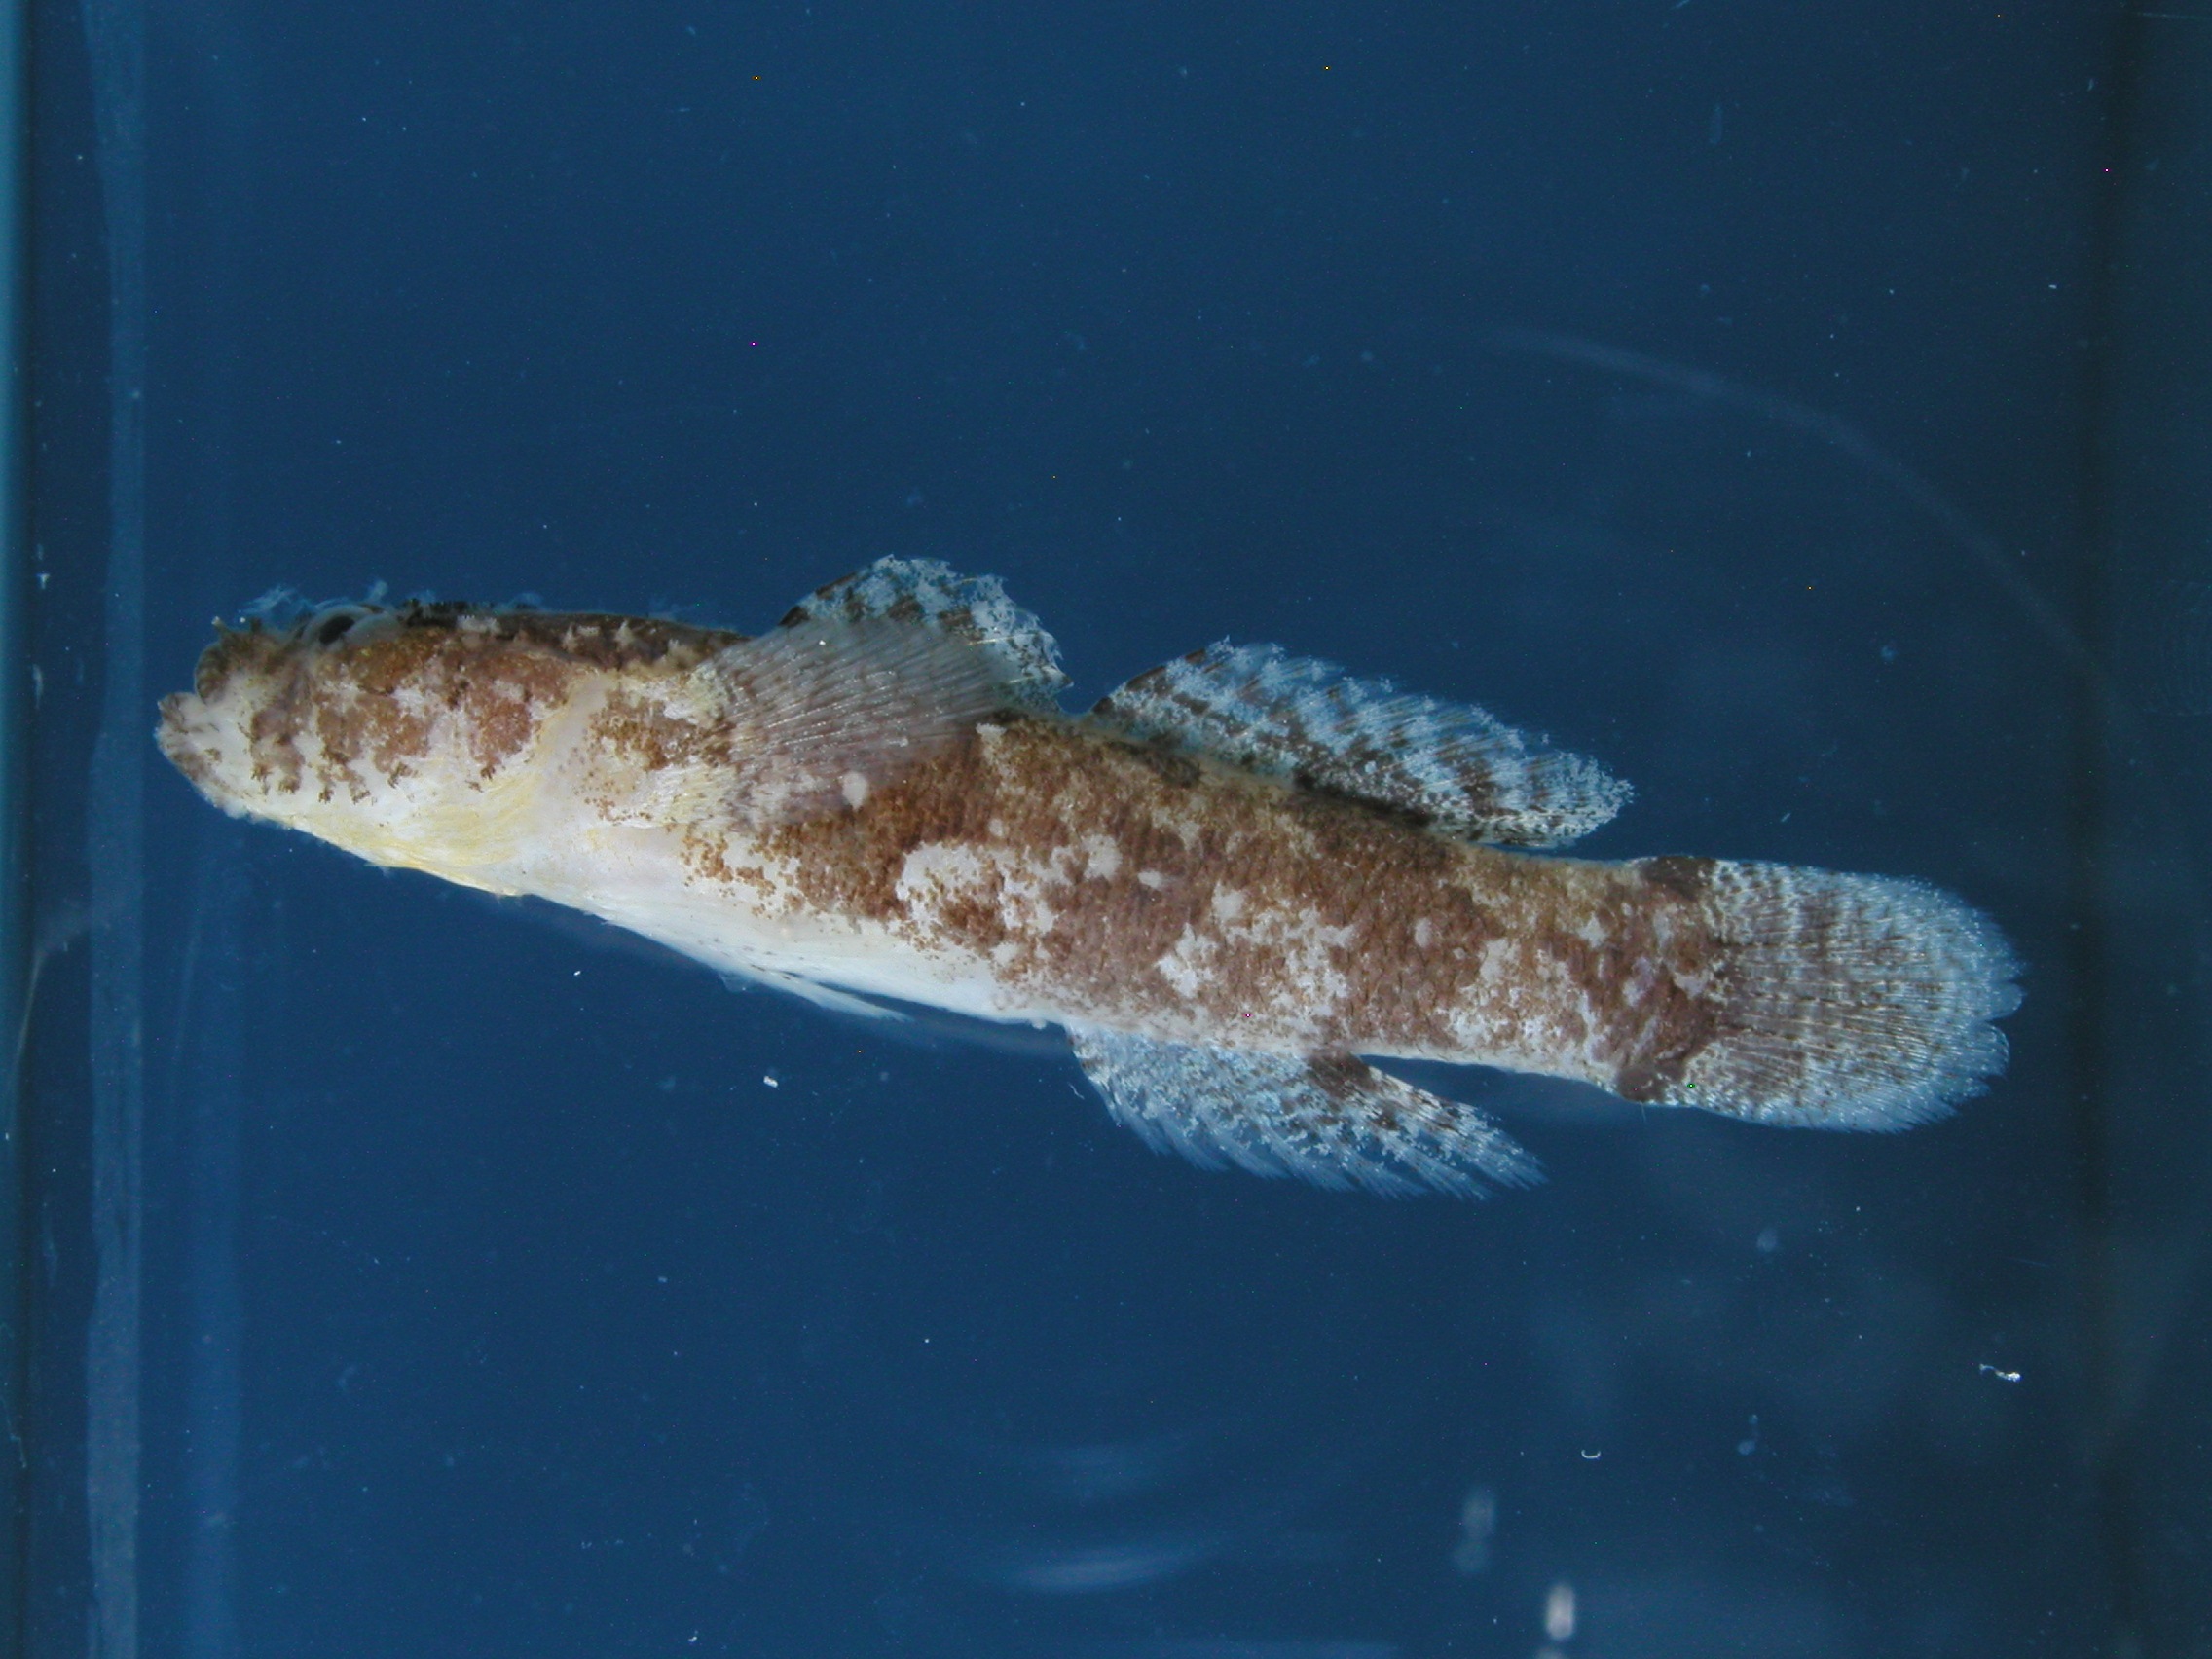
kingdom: Animalia
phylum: Chordata
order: Perciformes
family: Gobiidae
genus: Callogobius
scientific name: Callogobius flavobrunneus
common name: Slimy goby
